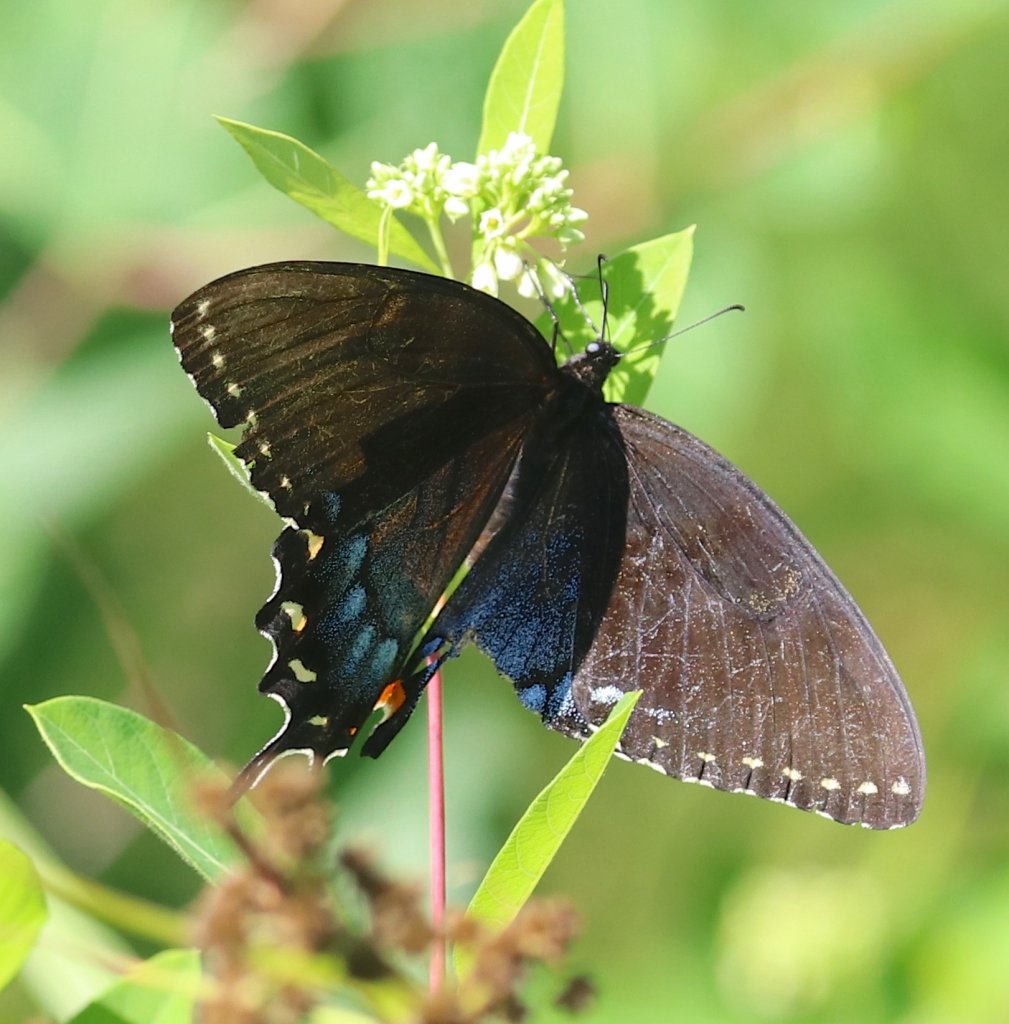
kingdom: Animalia
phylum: Arthropoda
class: Insecta
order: Lepidoptera
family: Papilionidae
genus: Pterourus
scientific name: Pterourus glaucus
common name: Eastern Tiger Swallowtail
